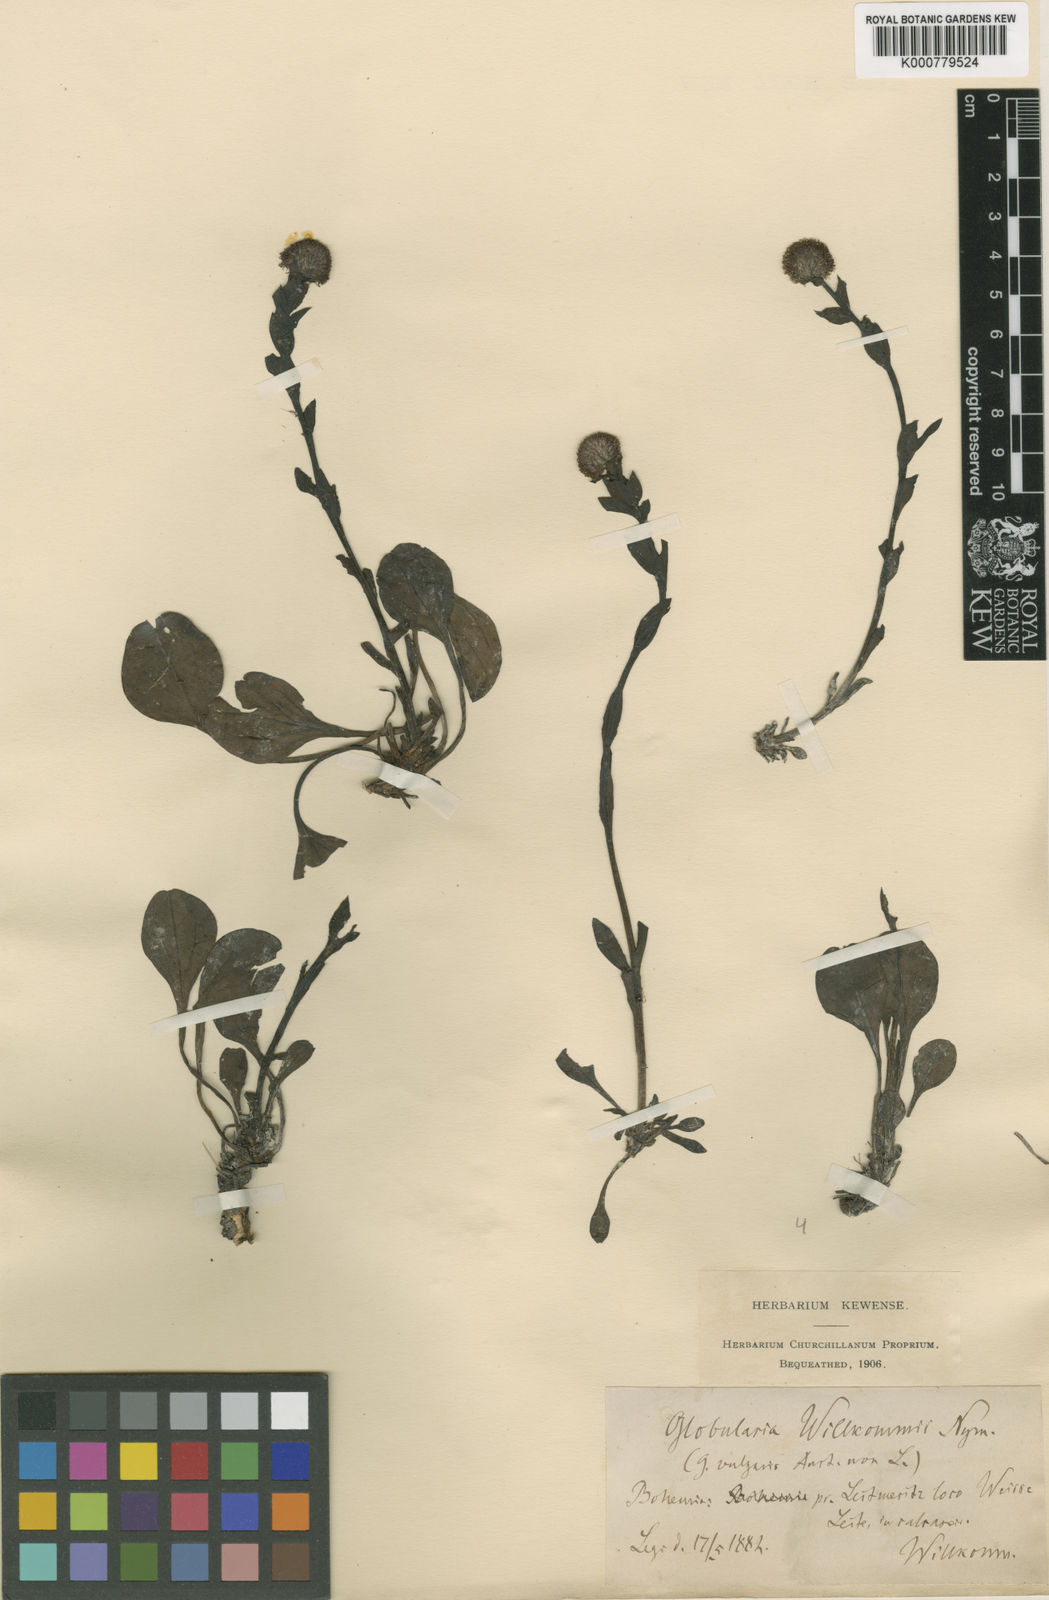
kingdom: Plantae
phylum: Tracheophyta
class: Magnoliopsida
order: Lamiales
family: Plantaginaceae
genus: Globularia
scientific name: Globularia bisnagarica
